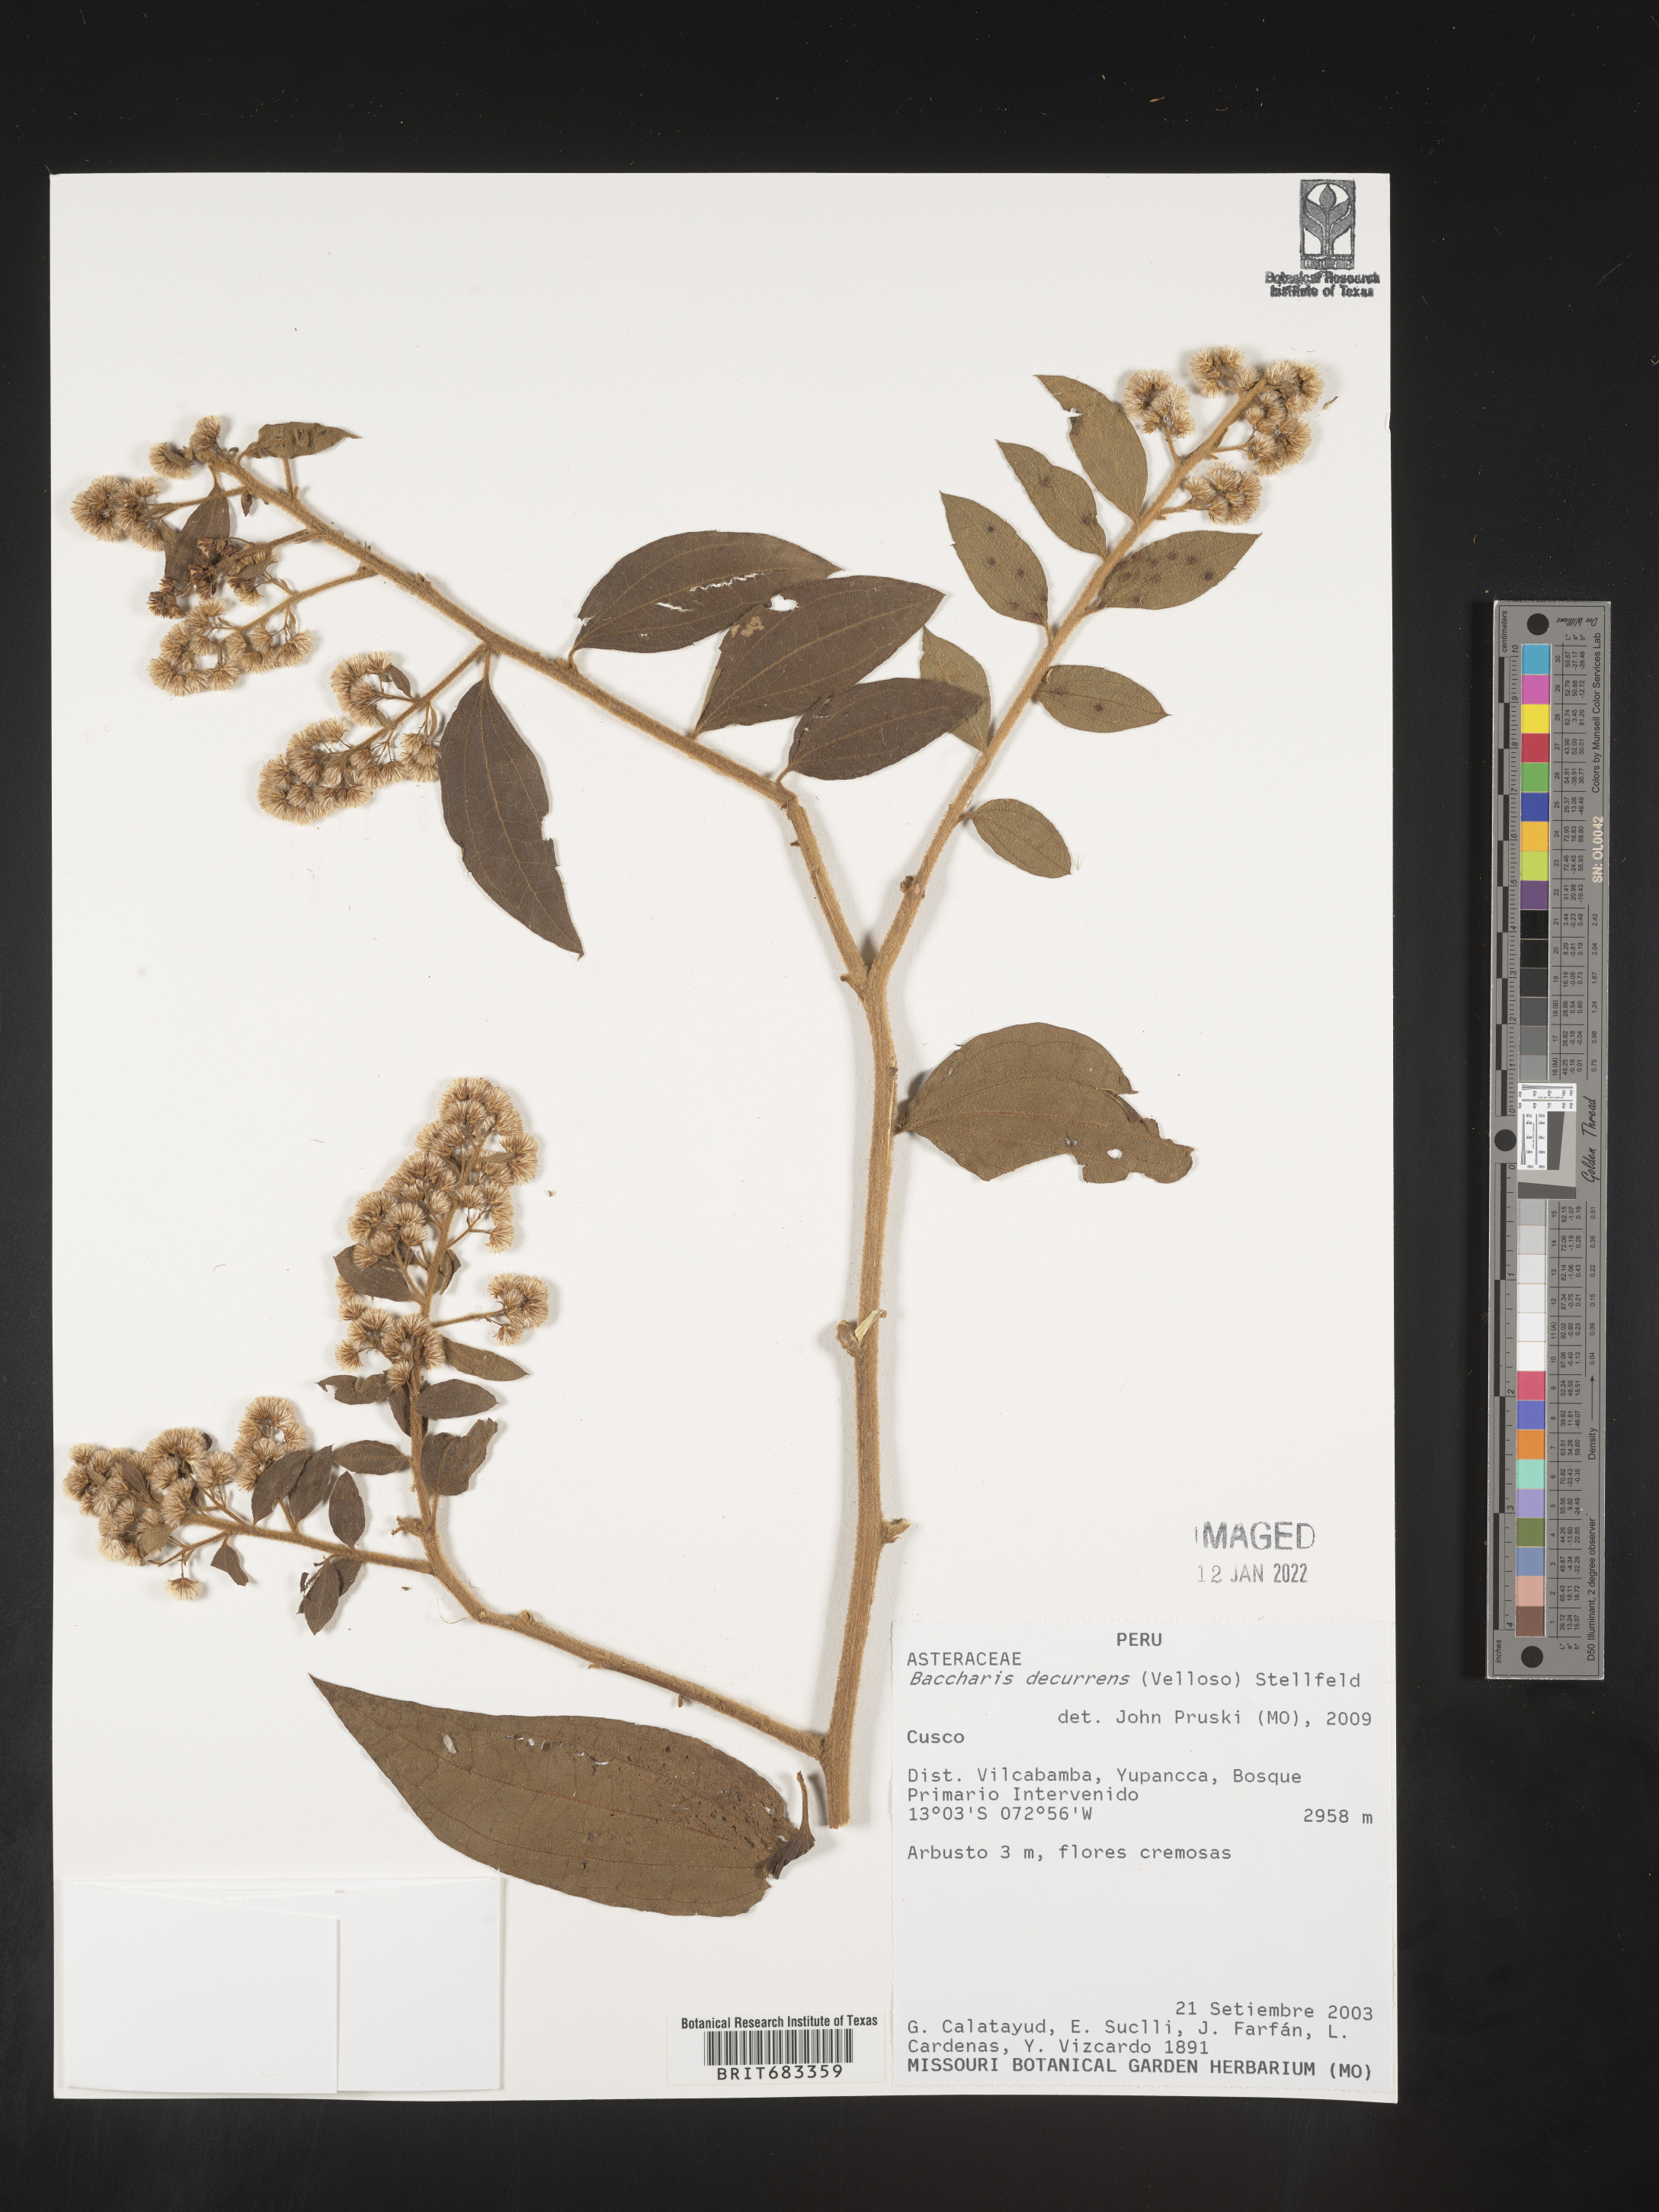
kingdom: Plantae
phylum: Tracheophyta
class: Magnoliopsida
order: Asterales
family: Asteraceae
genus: Baccharis
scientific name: Baccharis
